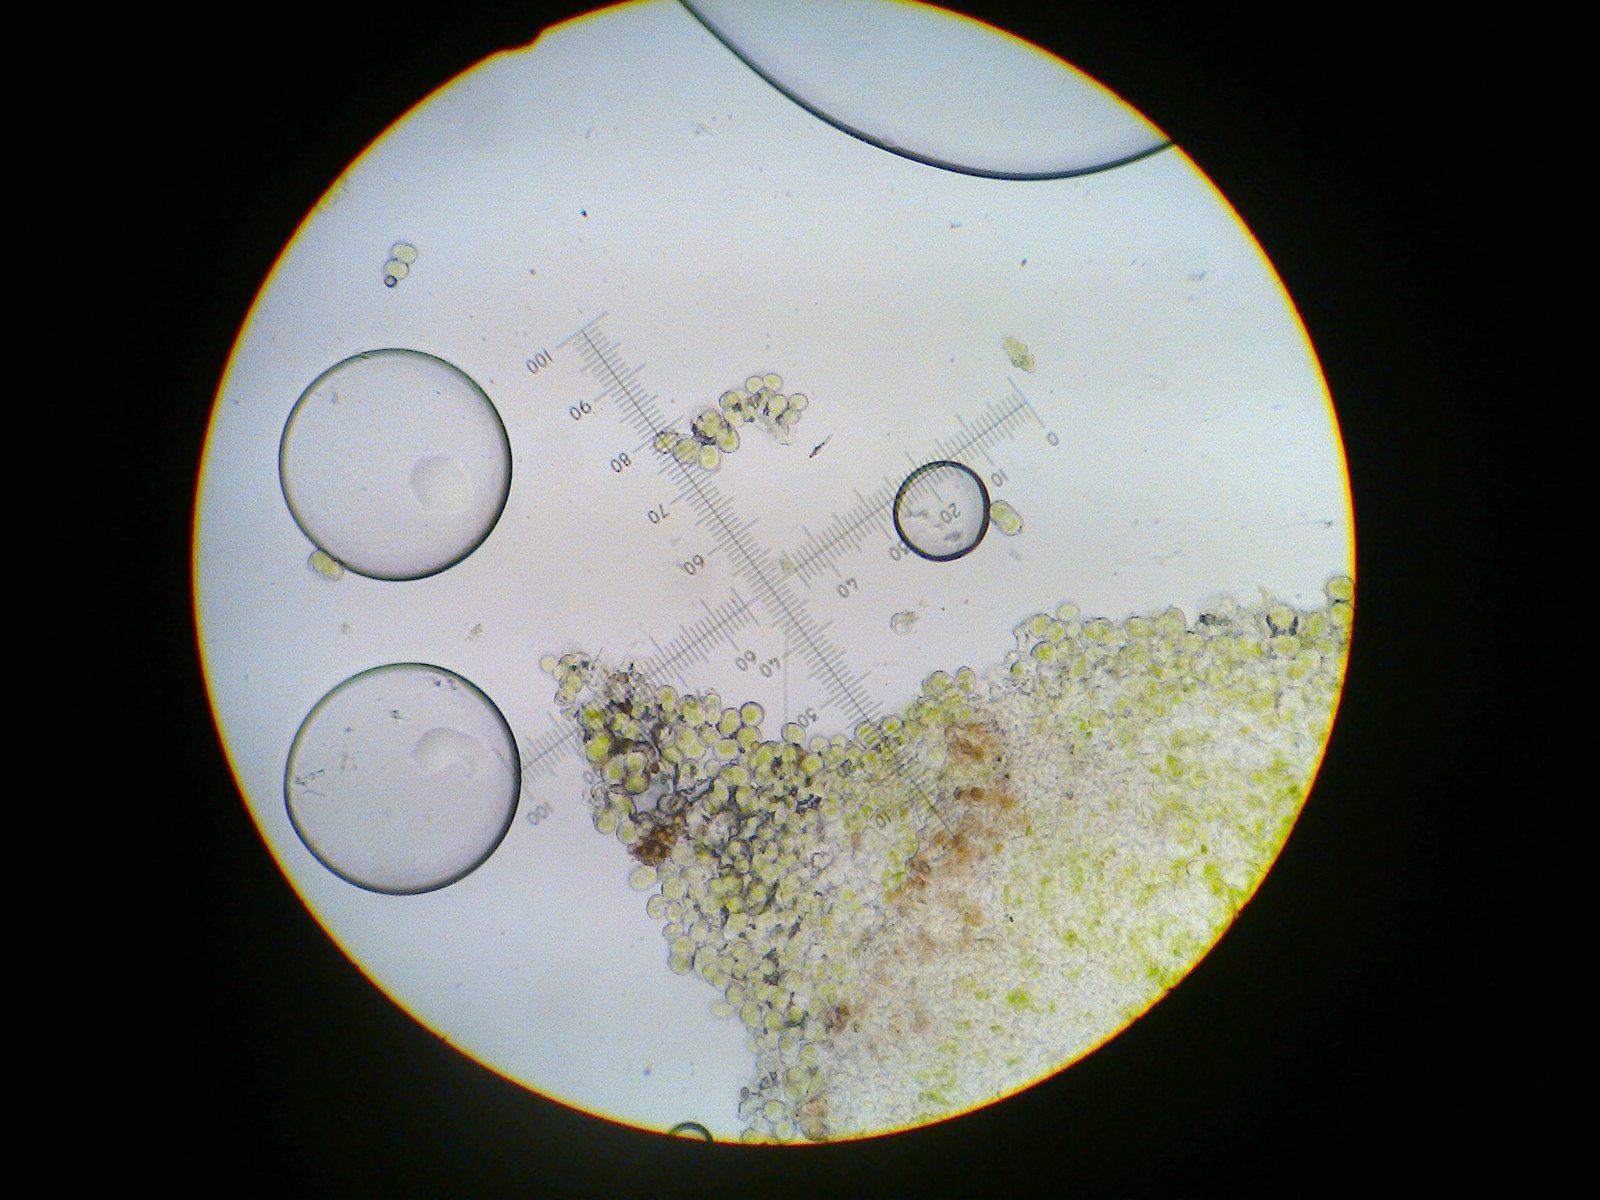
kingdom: Fungi
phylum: Ascomycota
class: Coniocybomycetes
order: Coniocybales
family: Coniocybaceae
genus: Chaenotheca
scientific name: Chaenotheca trichialis
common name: grå knappenålslav
